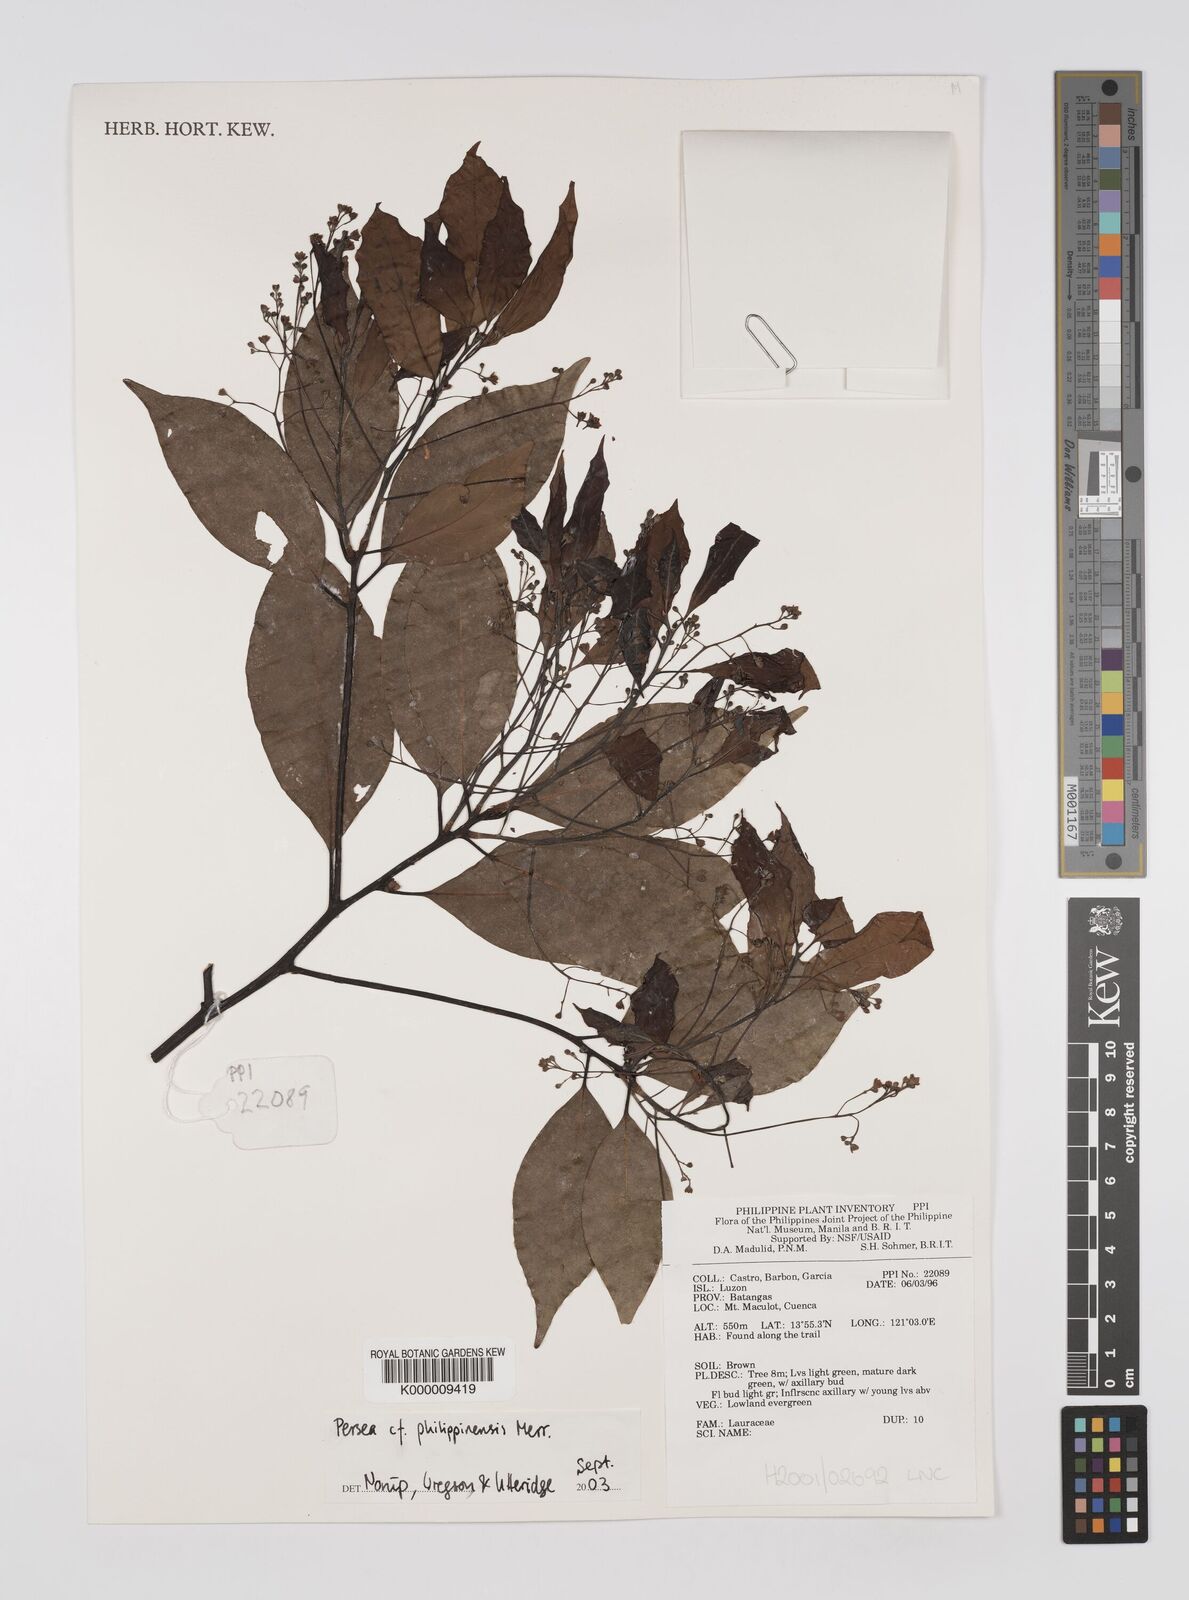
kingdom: Plantae
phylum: Tracheophyta
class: Magnoliopsida
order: Laurales
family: Lauraceae
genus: Persea
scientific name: Persea
